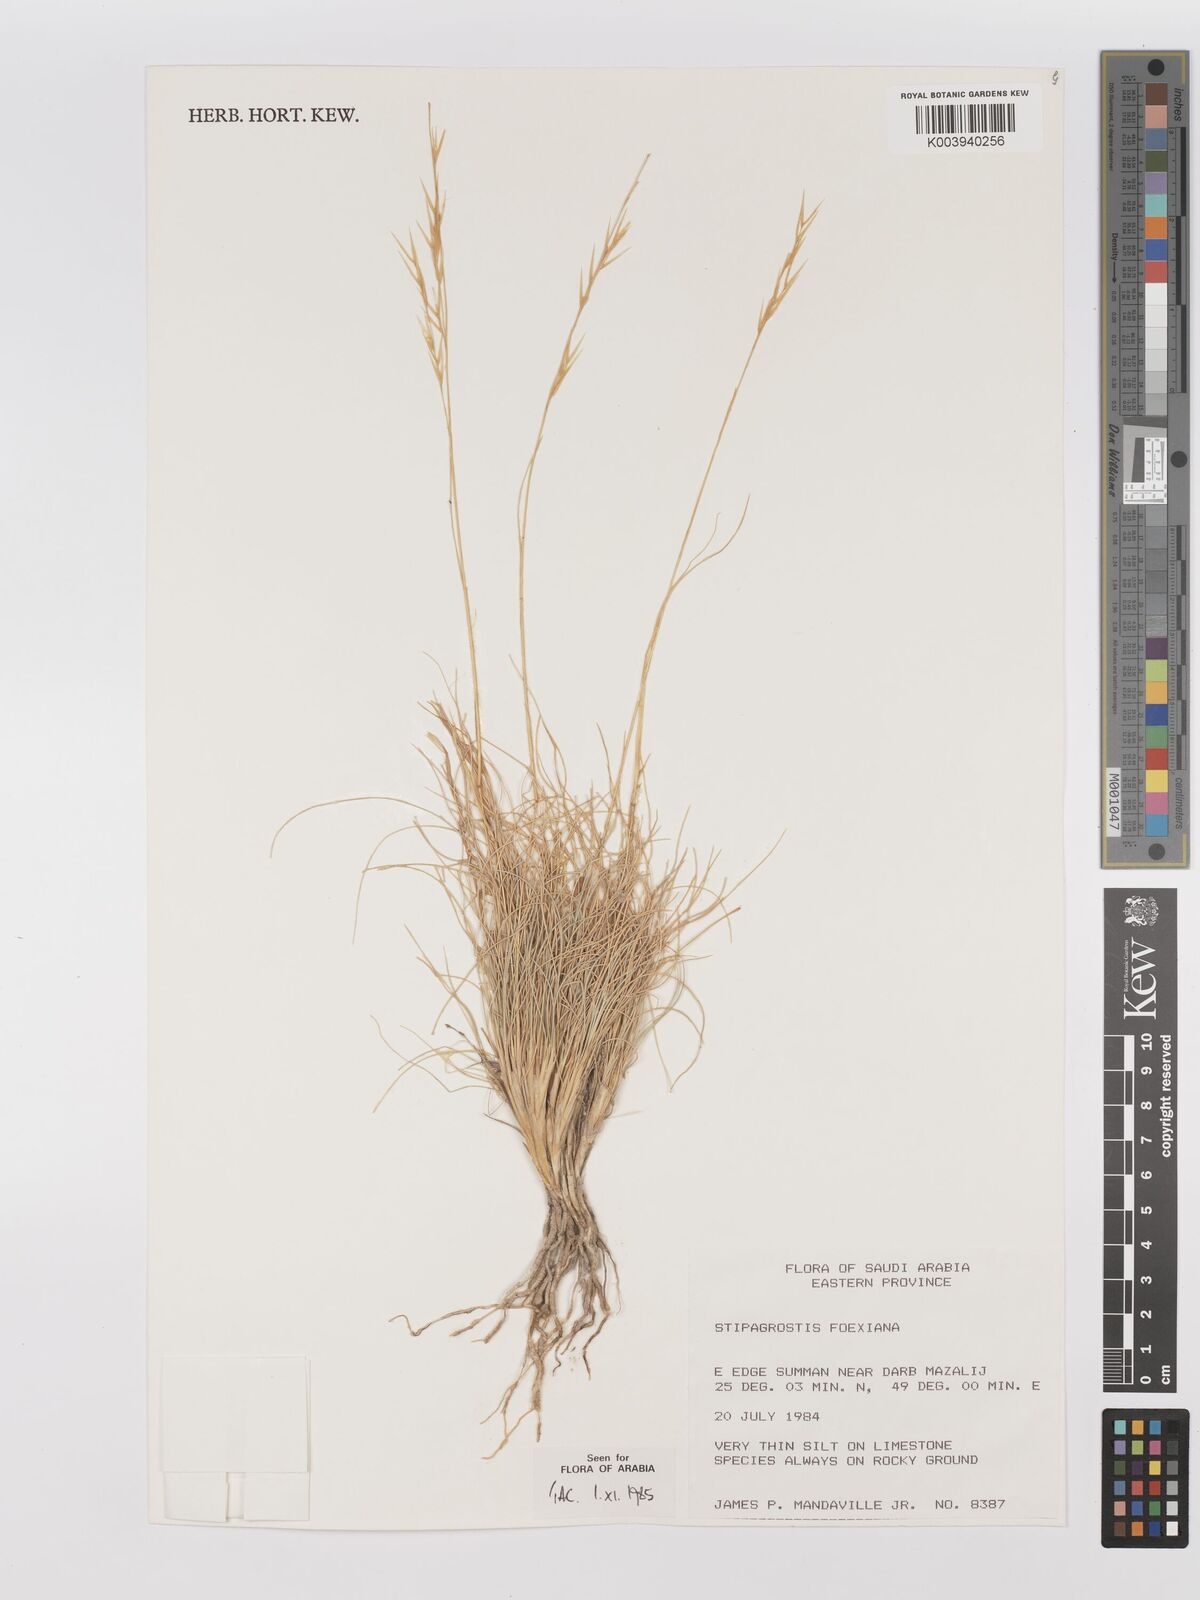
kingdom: Plantae
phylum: Tracheophyta
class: Liliopsida
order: Poales
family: Poaceae
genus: Stipagrostis
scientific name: Stipagrostis foexiana
